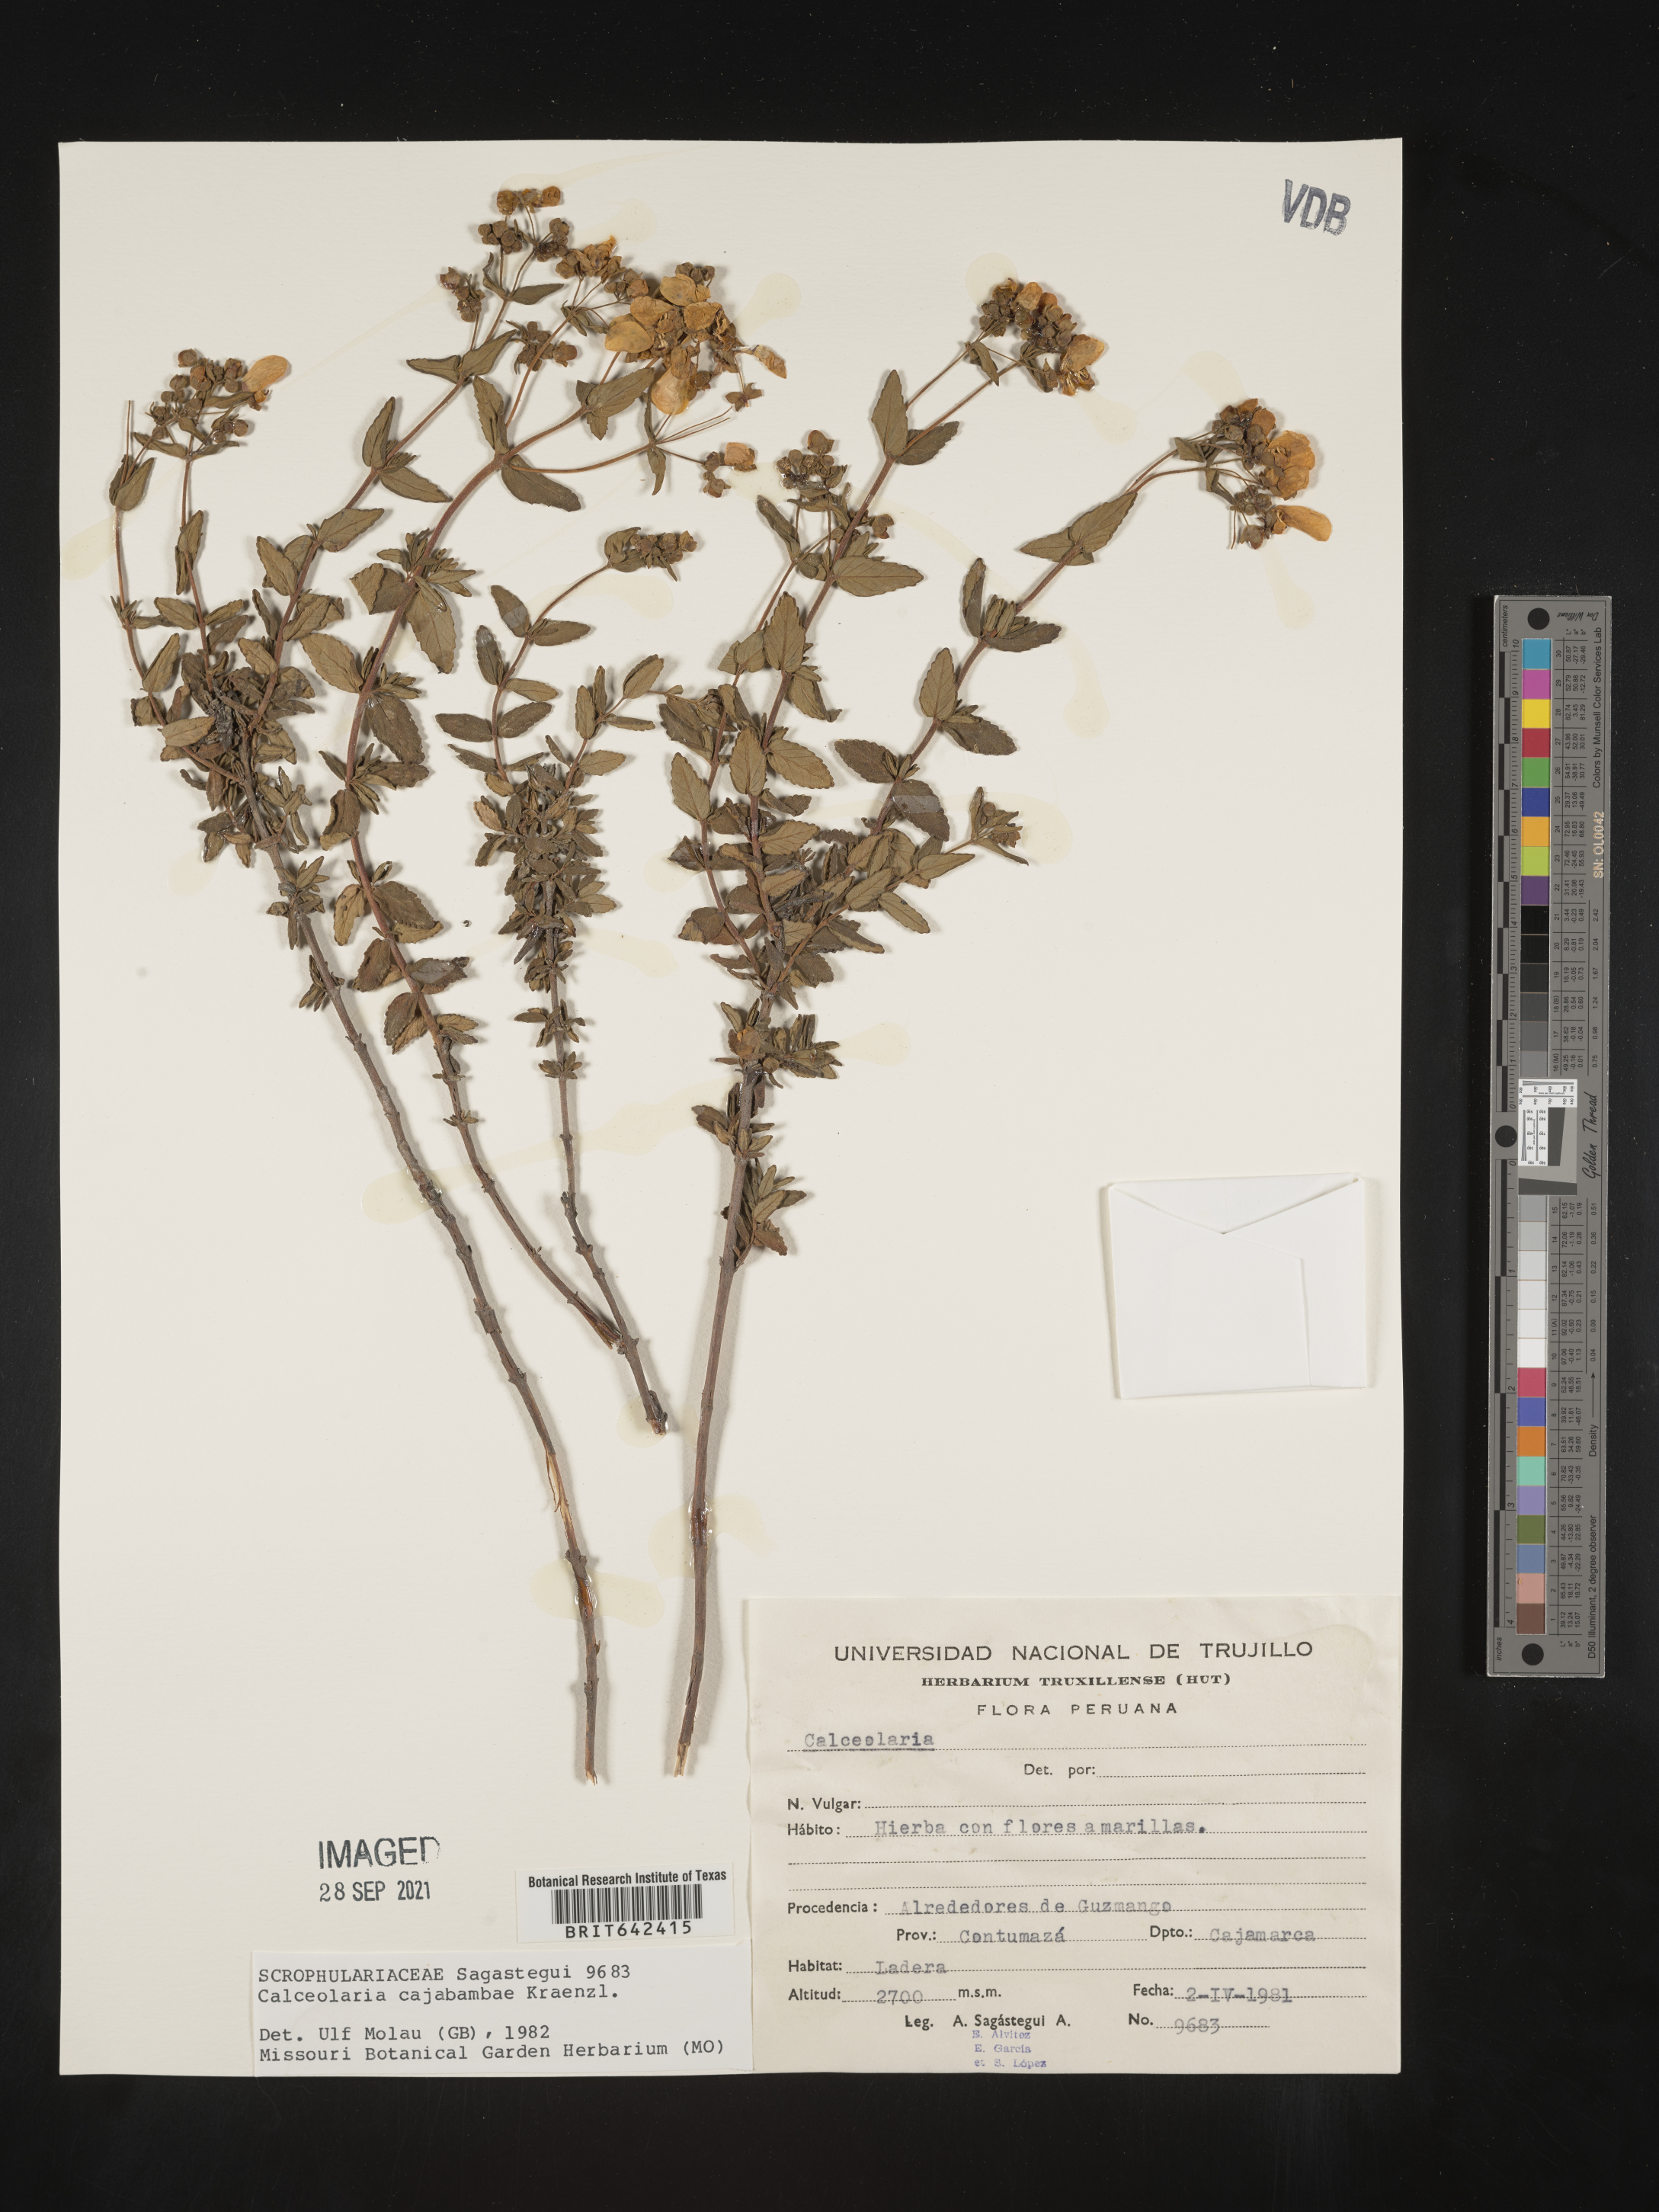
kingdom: Plantae
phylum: Tracheophyta
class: Magnoliopsida
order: Lamiales
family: Calceolariaceae
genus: Calceolaria
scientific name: Calceolaria
